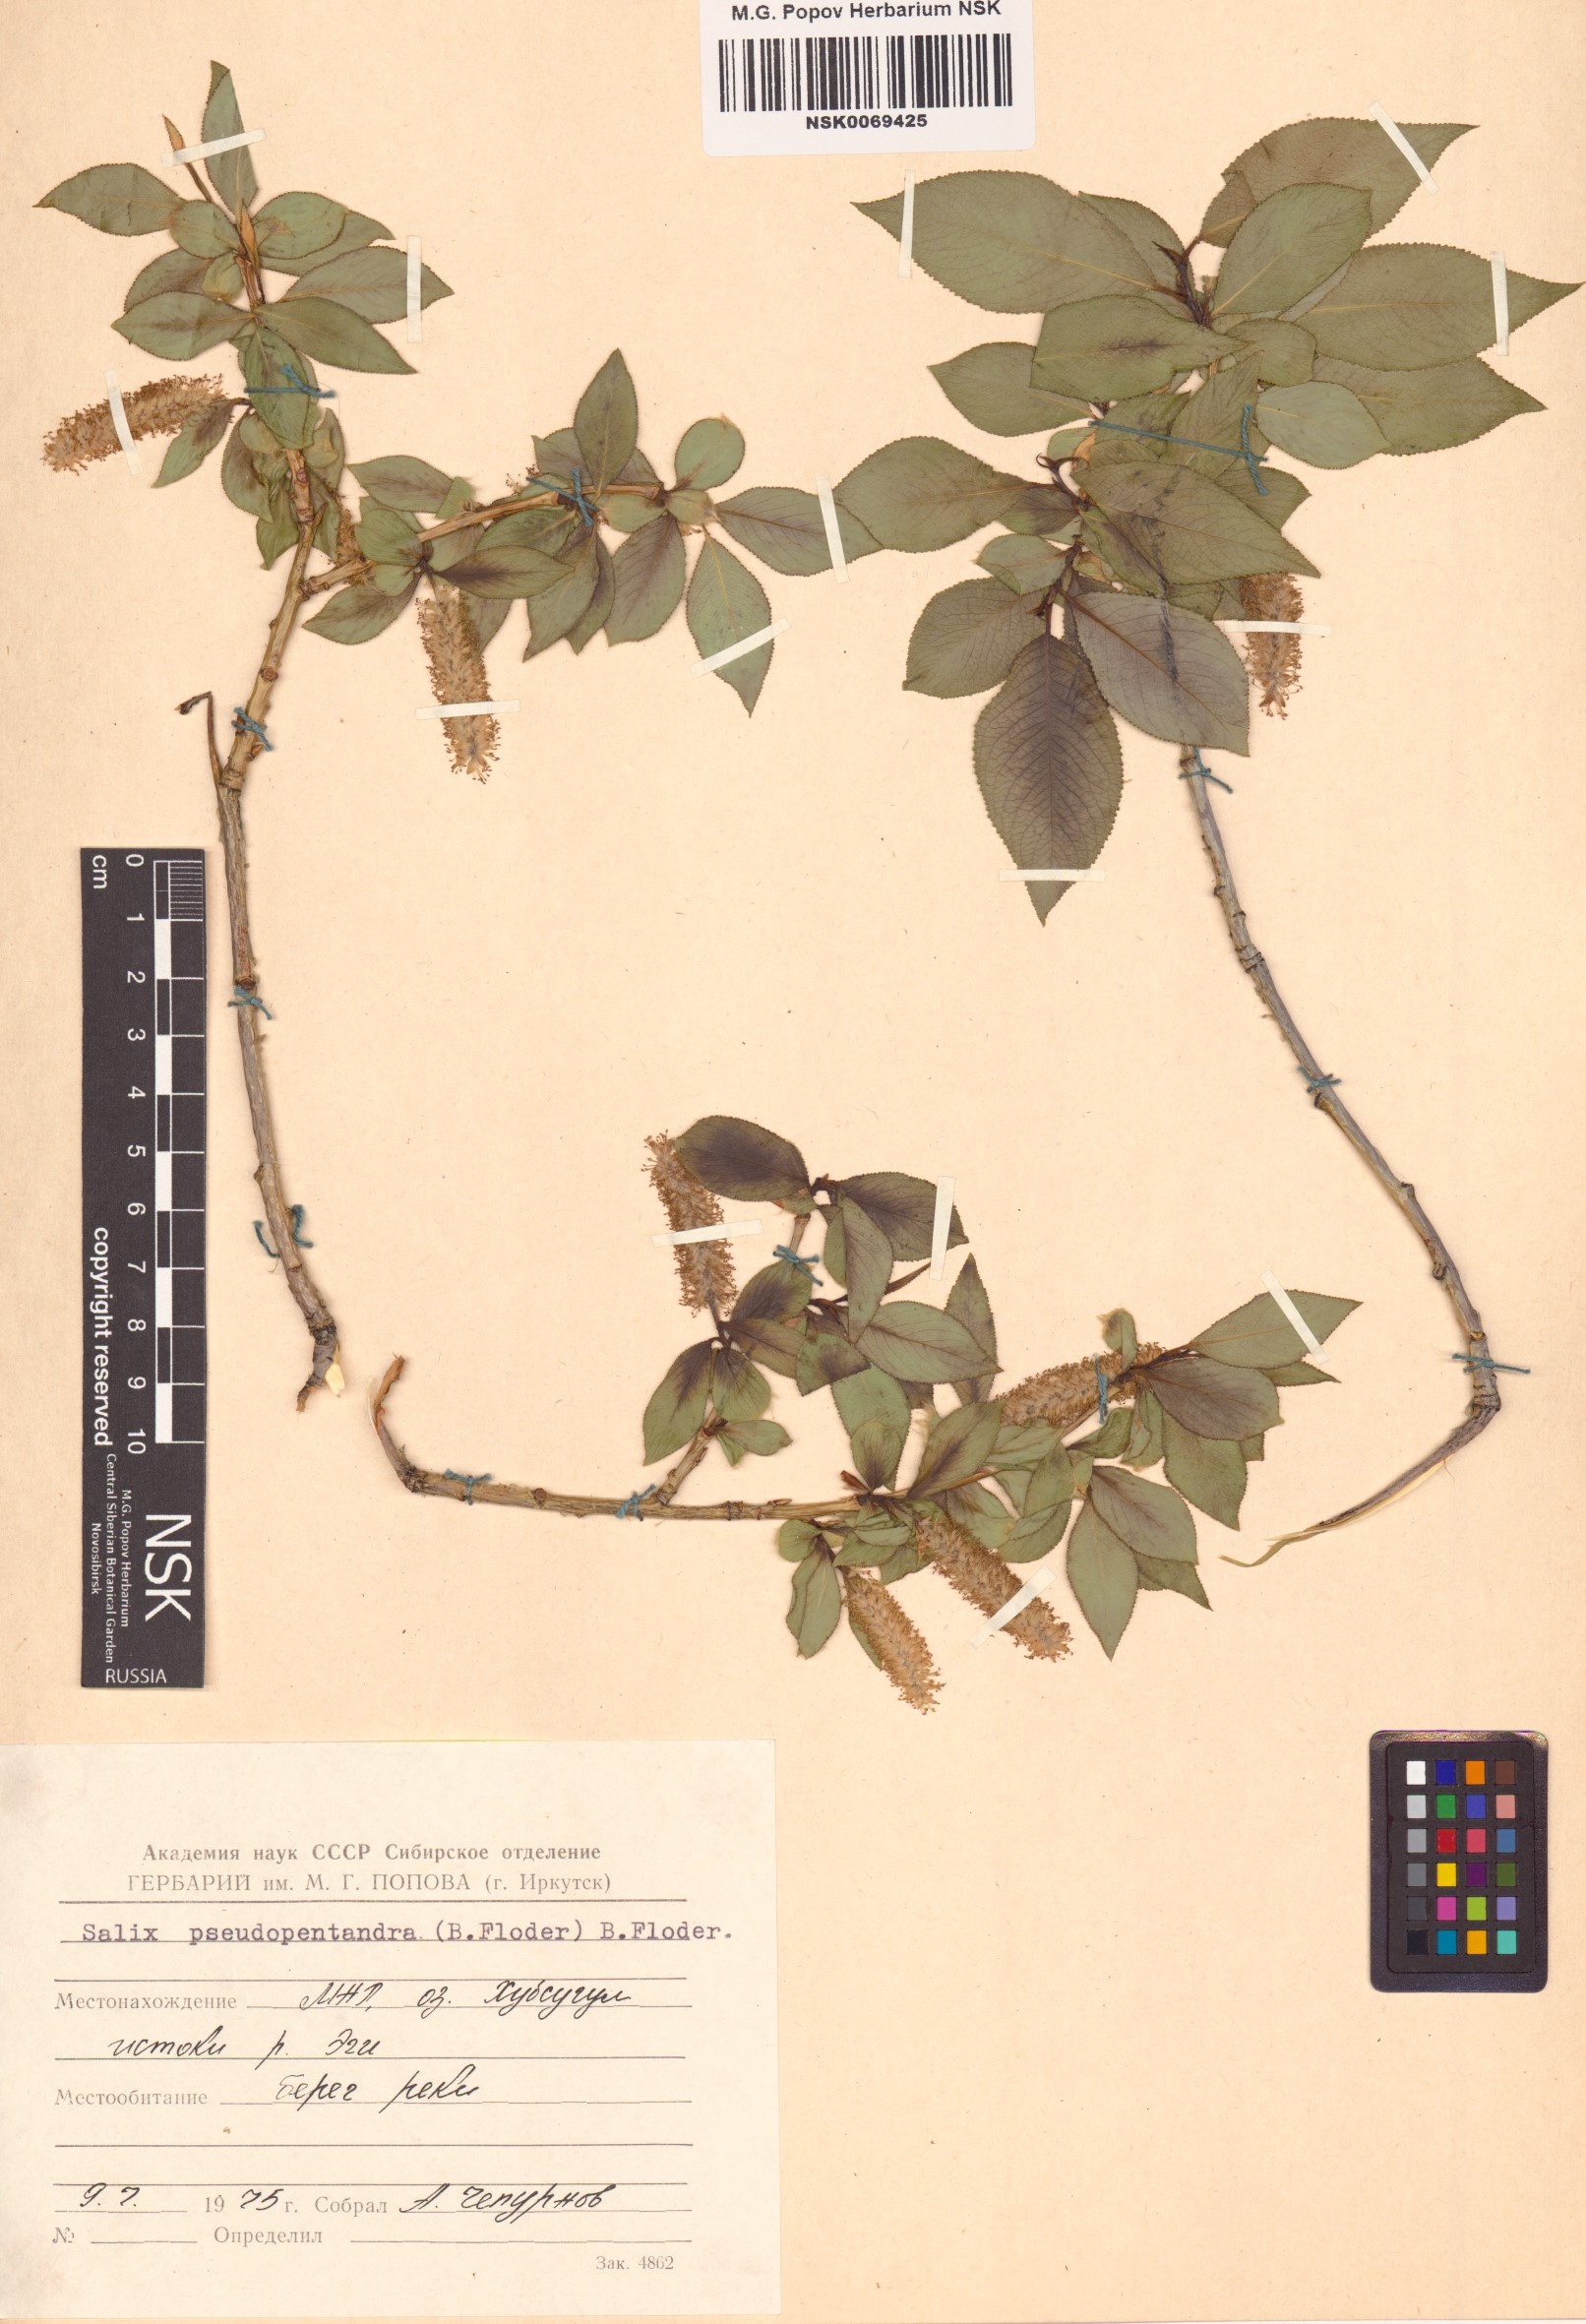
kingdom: Plantae
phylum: Tracheophyta
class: Magnoliopsida
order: Malpighiales
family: Salicaceae
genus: Salix
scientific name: Salix pseudopentandra
